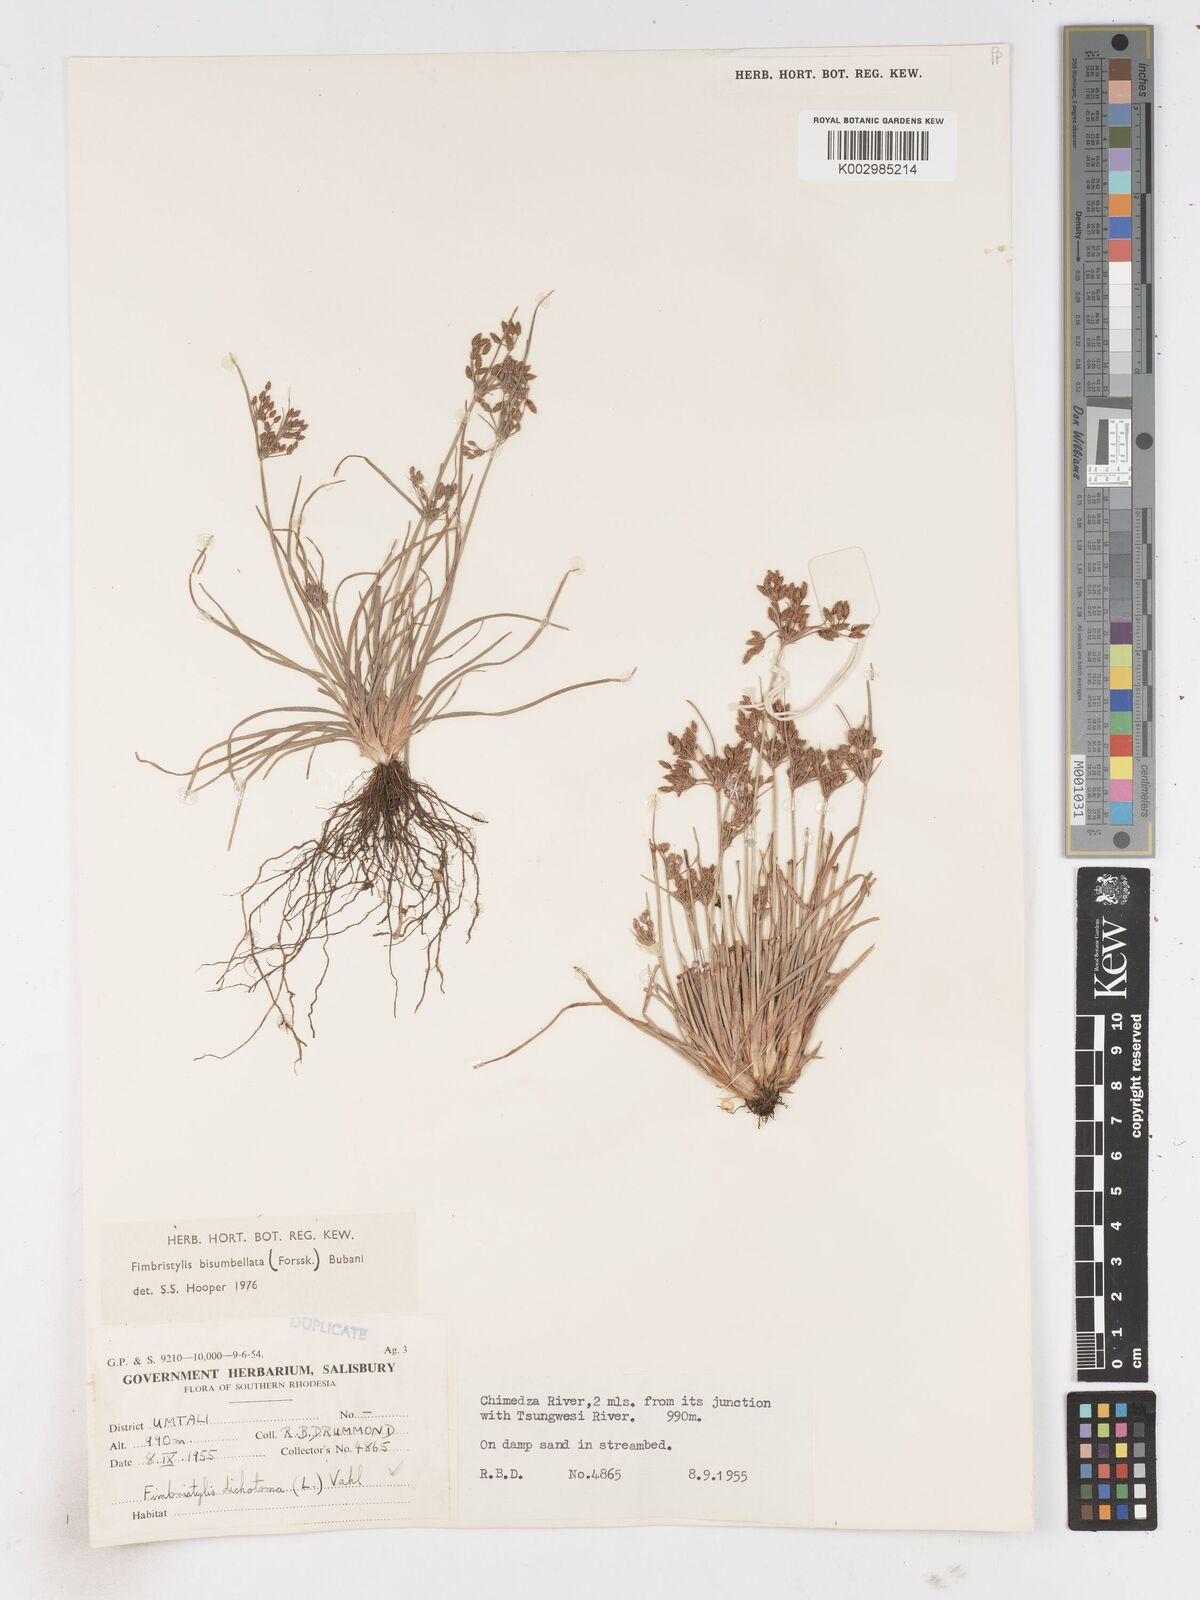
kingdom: Plantae
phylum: Tracheophyta
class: Liliopsida
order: Poales
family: Cyperaceae
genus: Fimbristylis
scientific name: Fimbristylis bisumbellata
